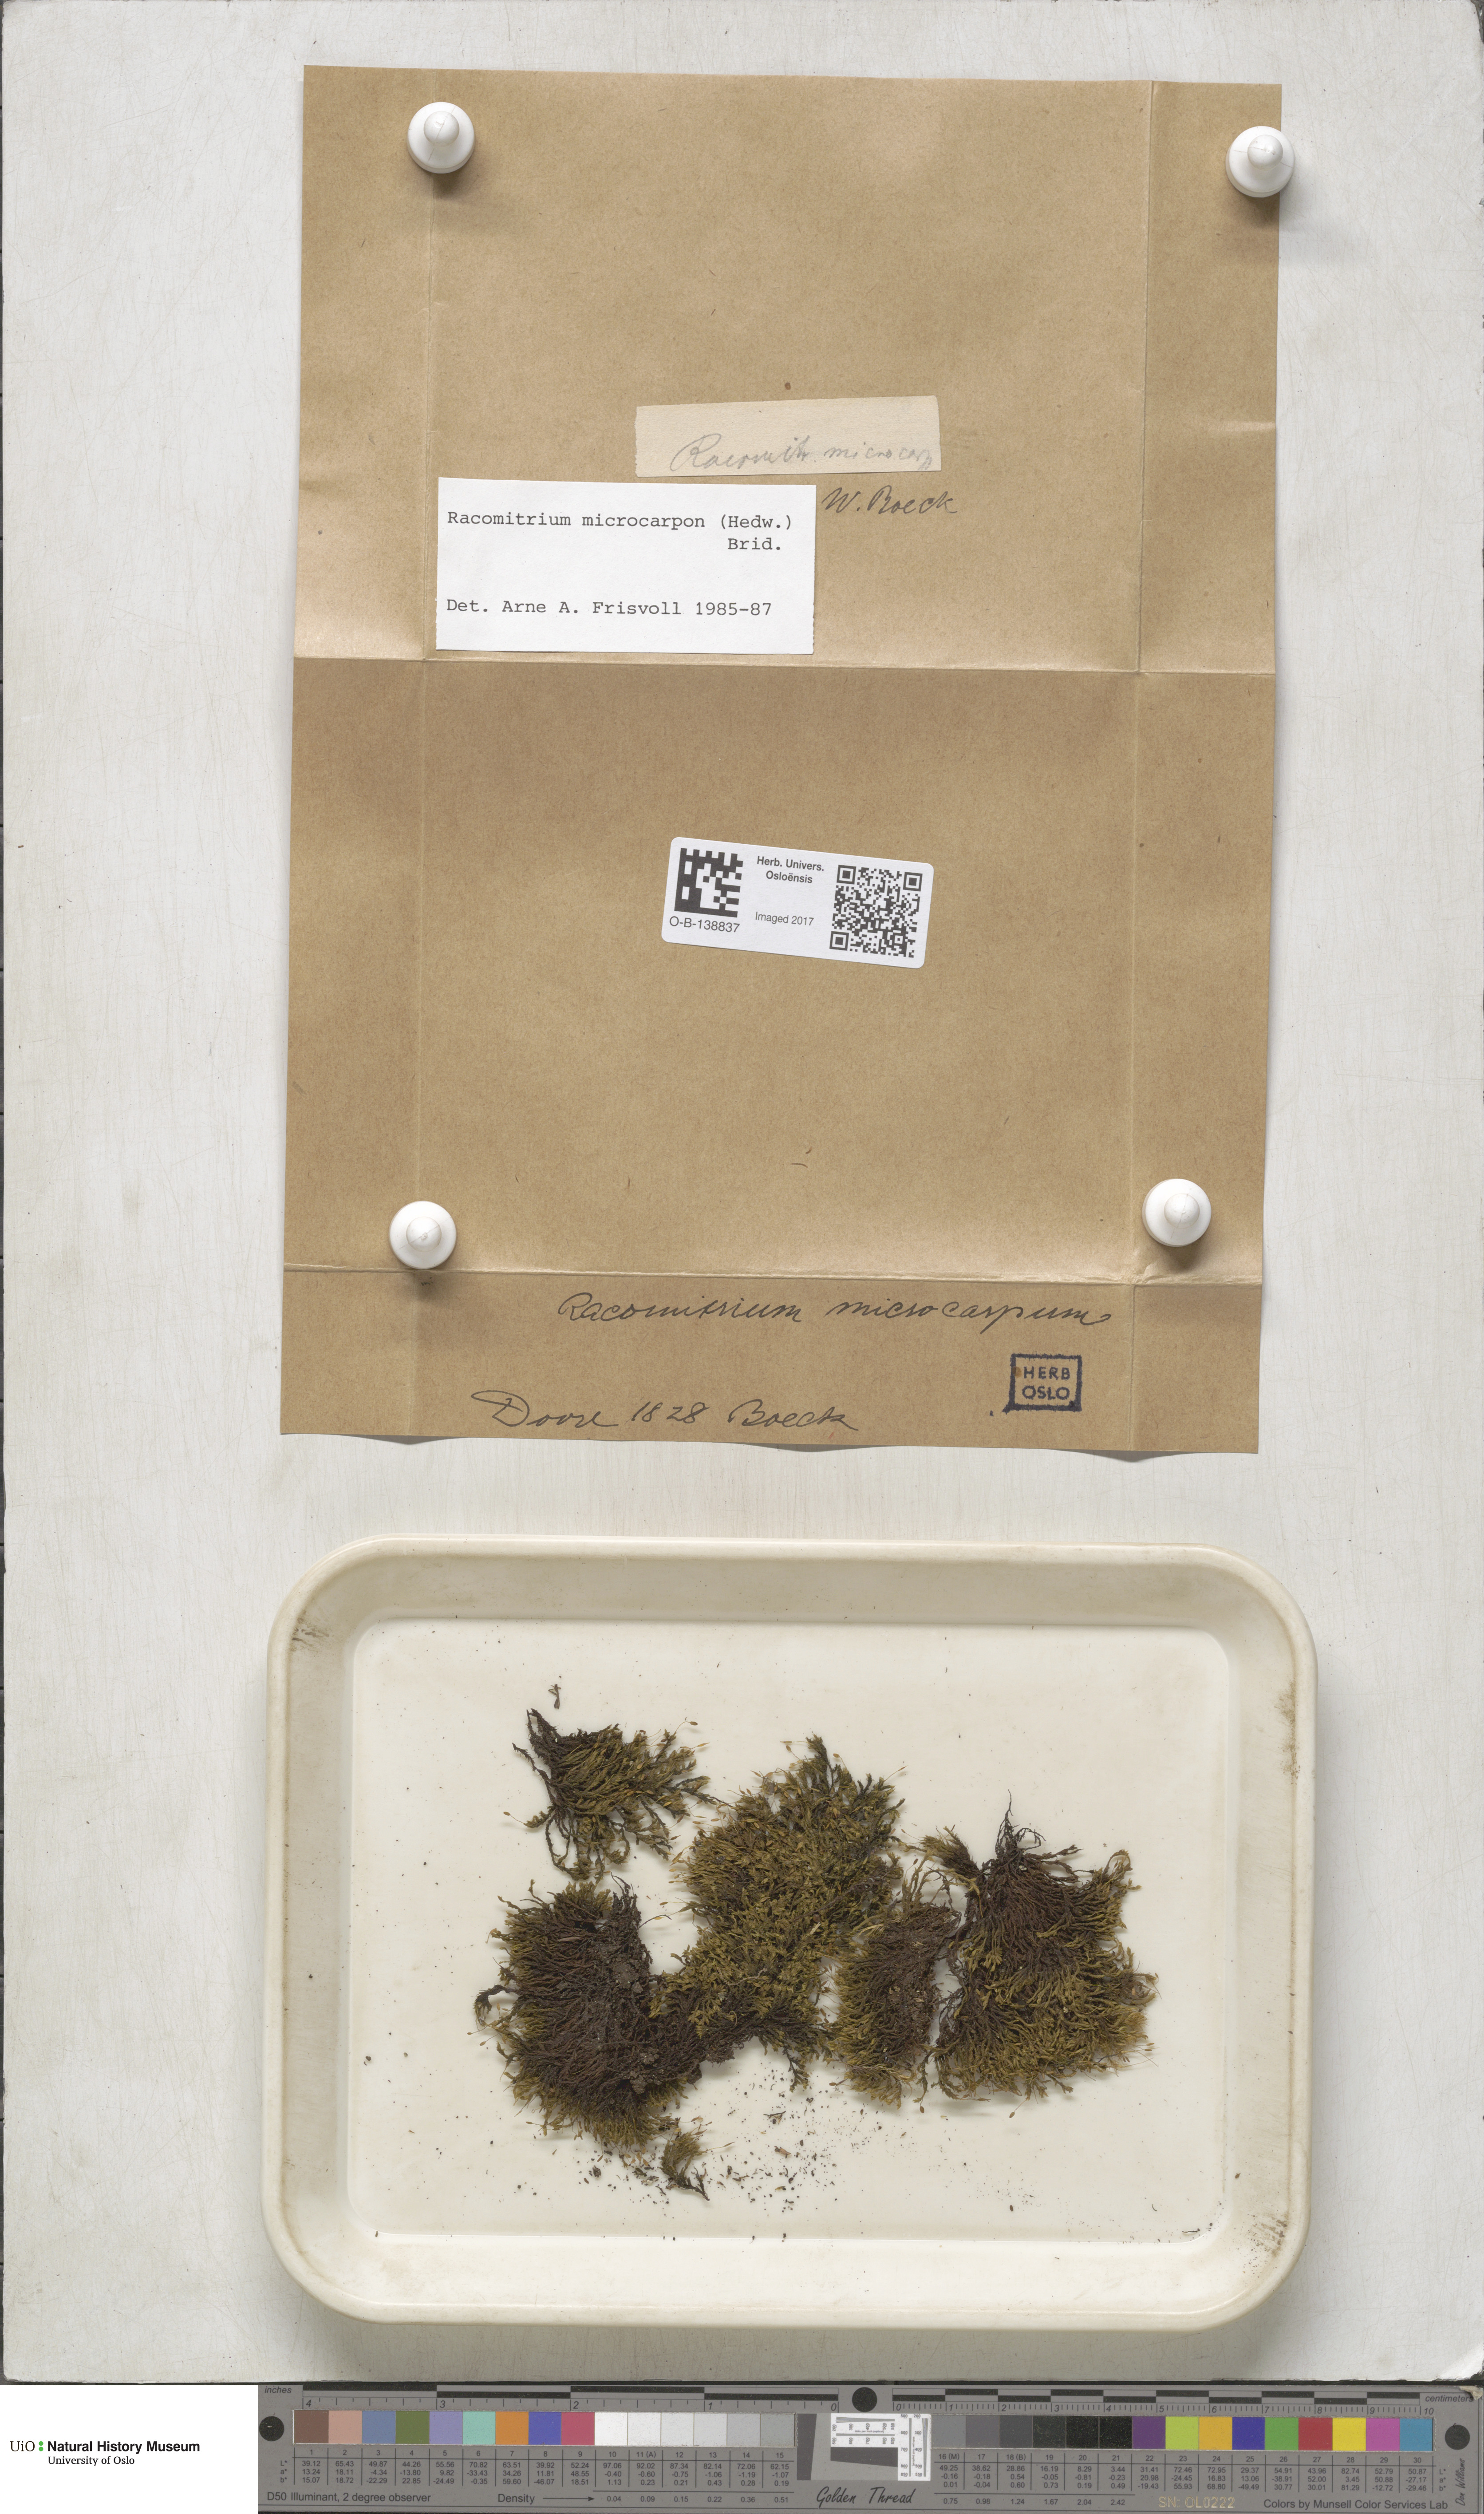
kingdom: Plantae
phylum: Bryophyta
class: Bryopsida
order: Grimmiales
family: Grimmiaceae
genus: Bucklandiella
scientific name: Bucklandiella microcarpos
